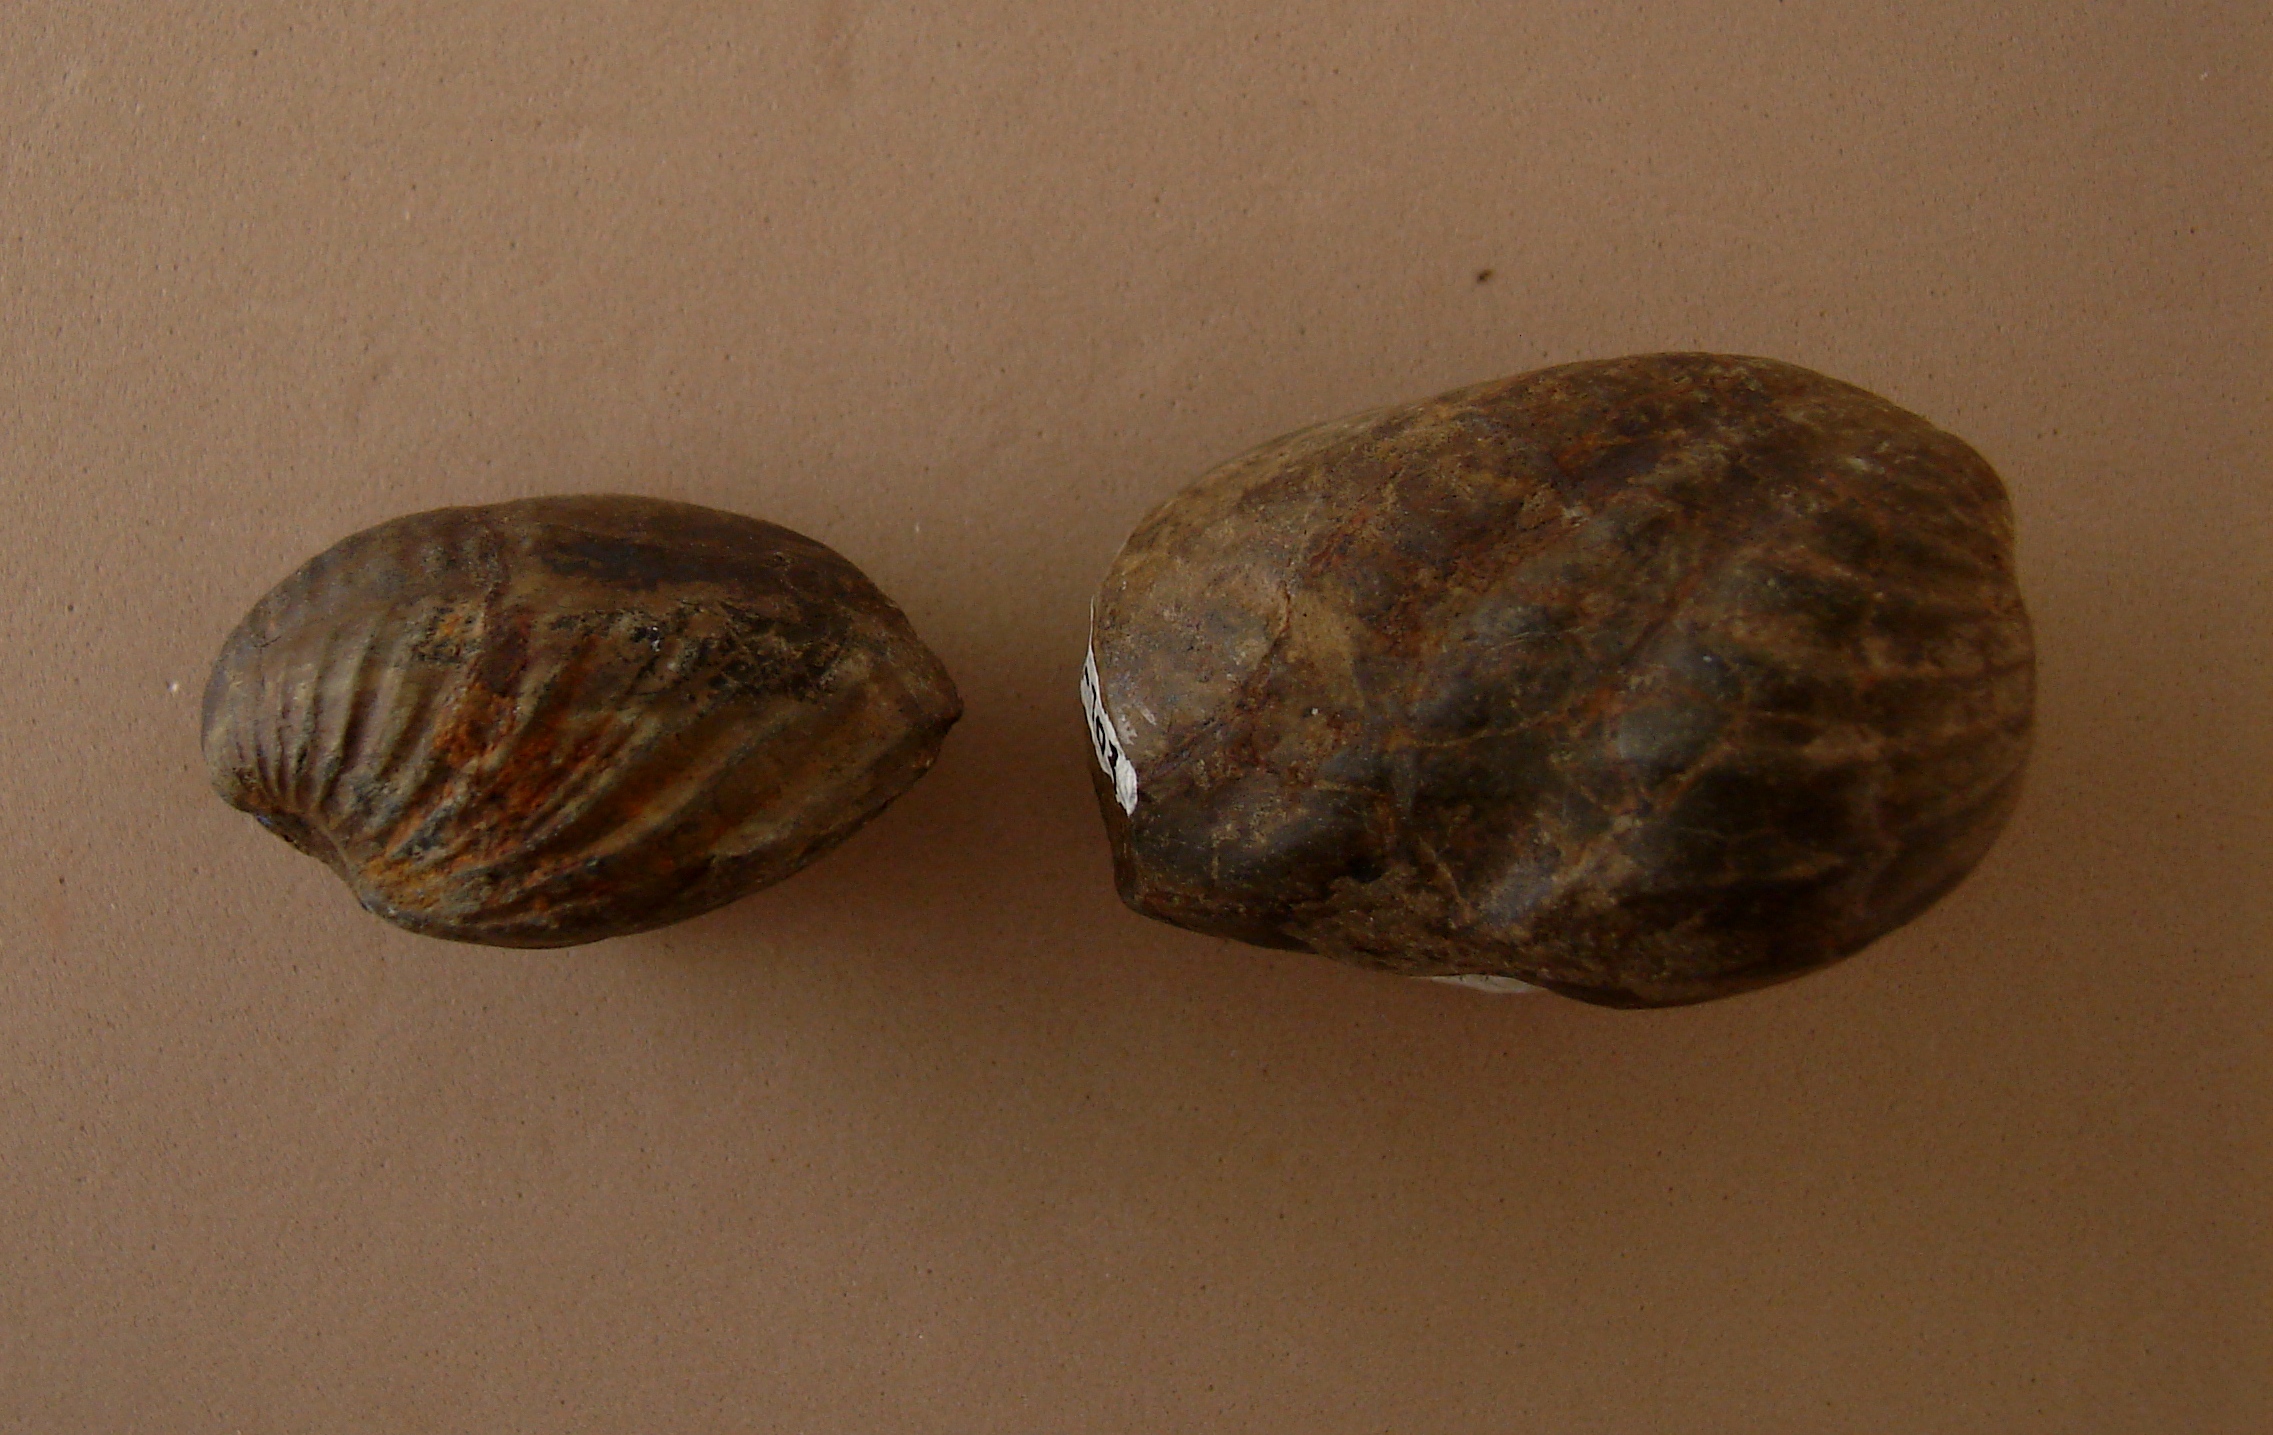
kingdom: Animalia
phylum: Mollusca
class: Bivalvia
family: Grammysiidae
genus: Grammysia
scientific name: Grammysia
